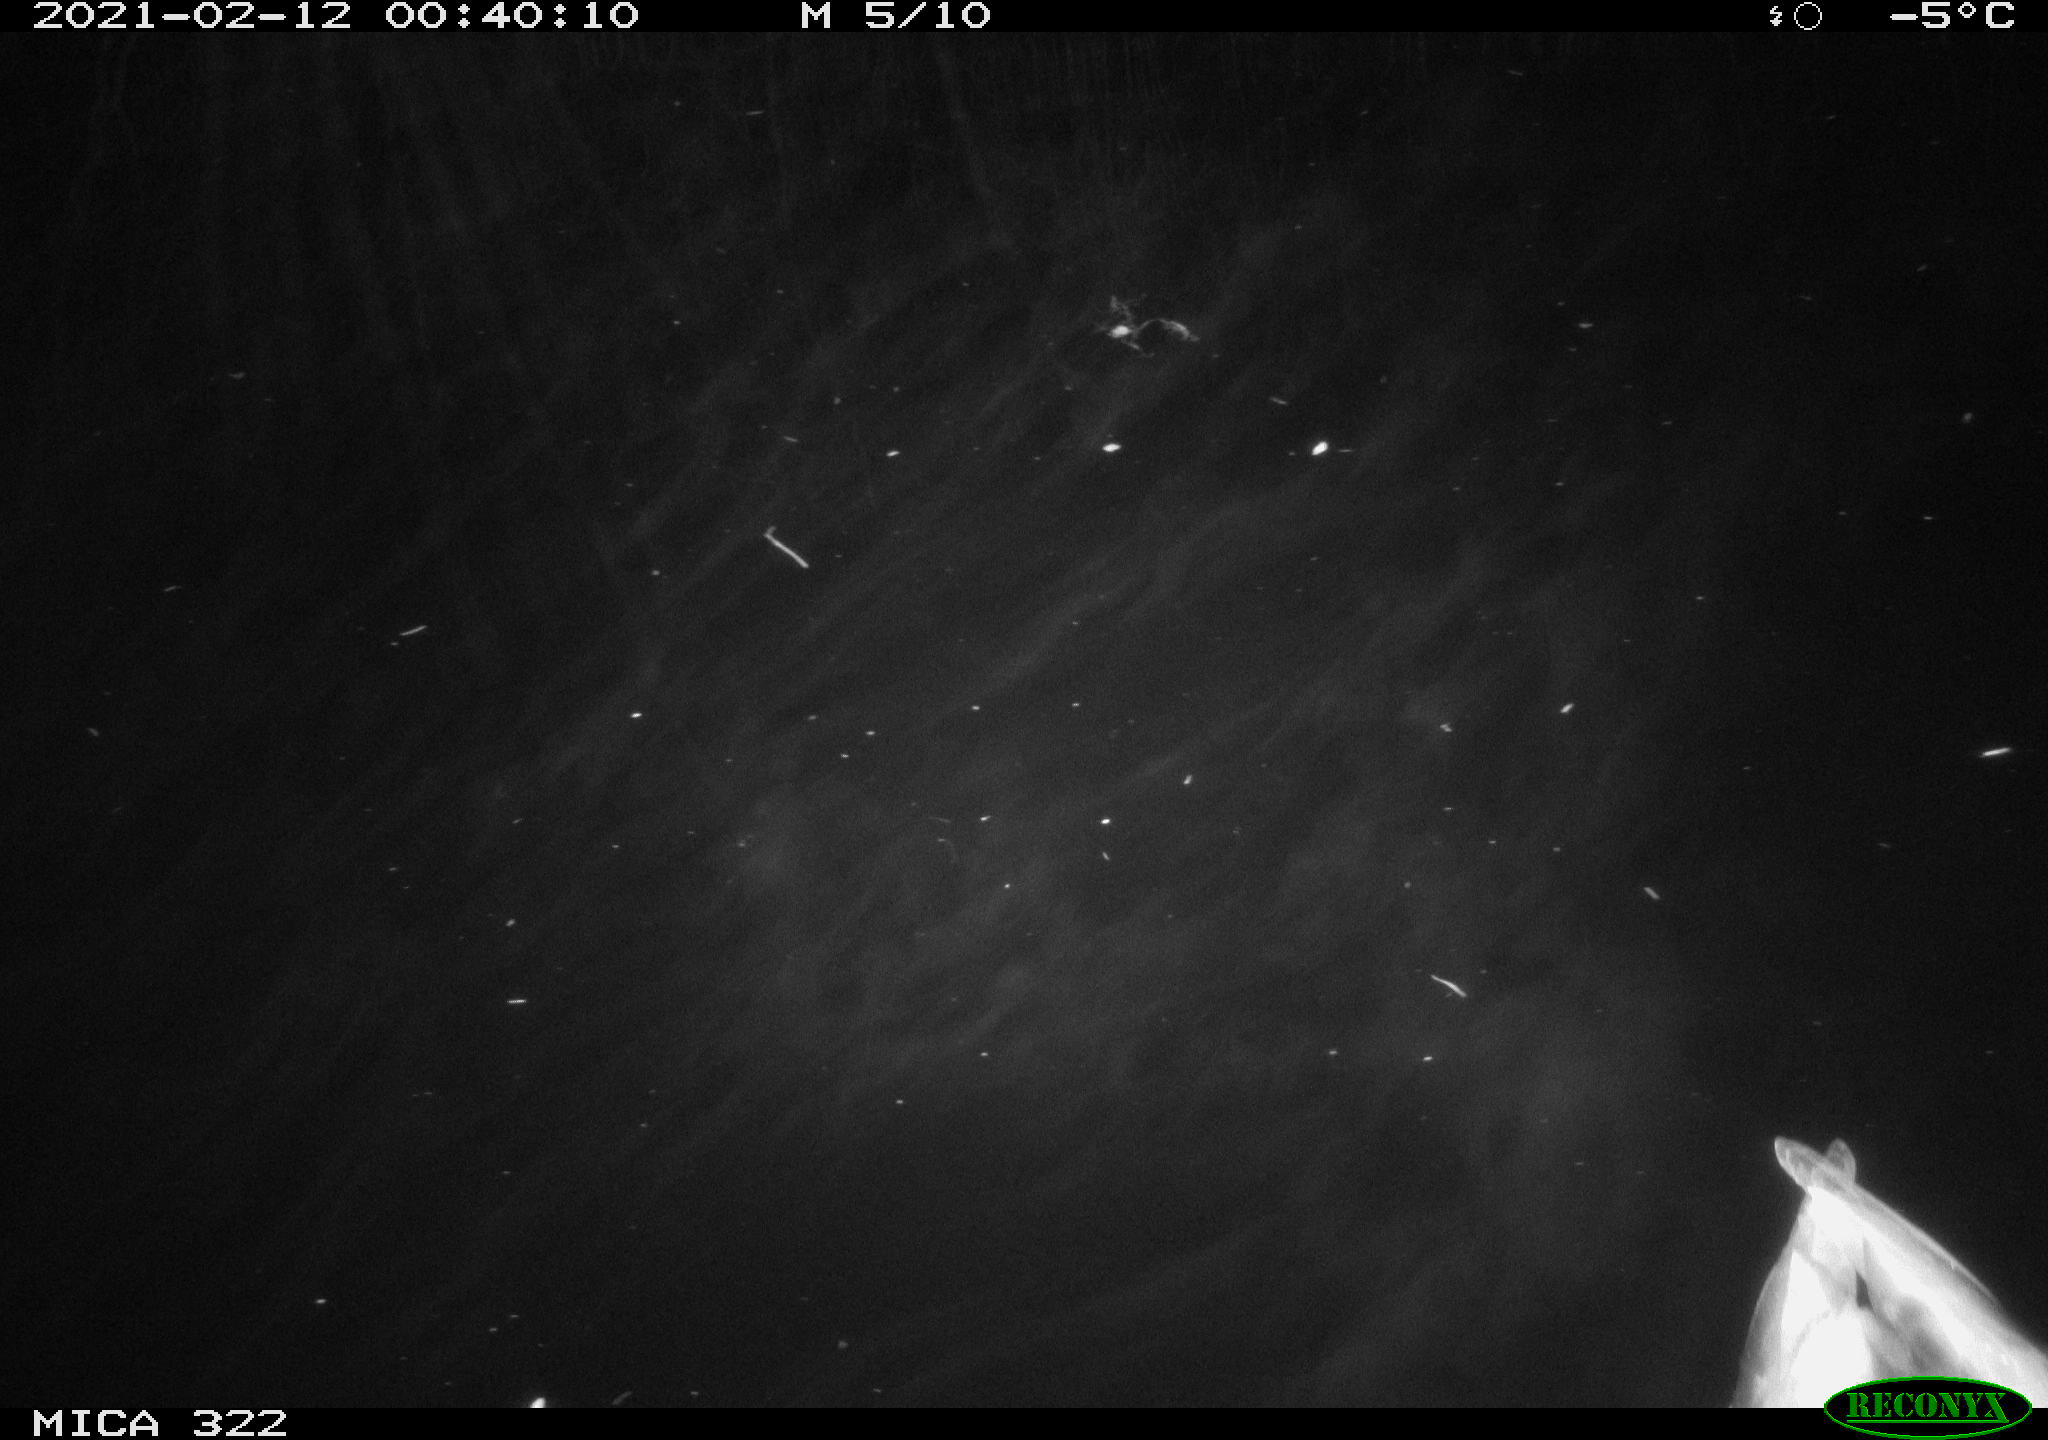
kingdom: Animalia
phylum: Chordata
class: Aves
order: Anseriformes
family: Anatidae
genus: Anas
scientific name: Anas platyrhynchos
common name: Mallard
